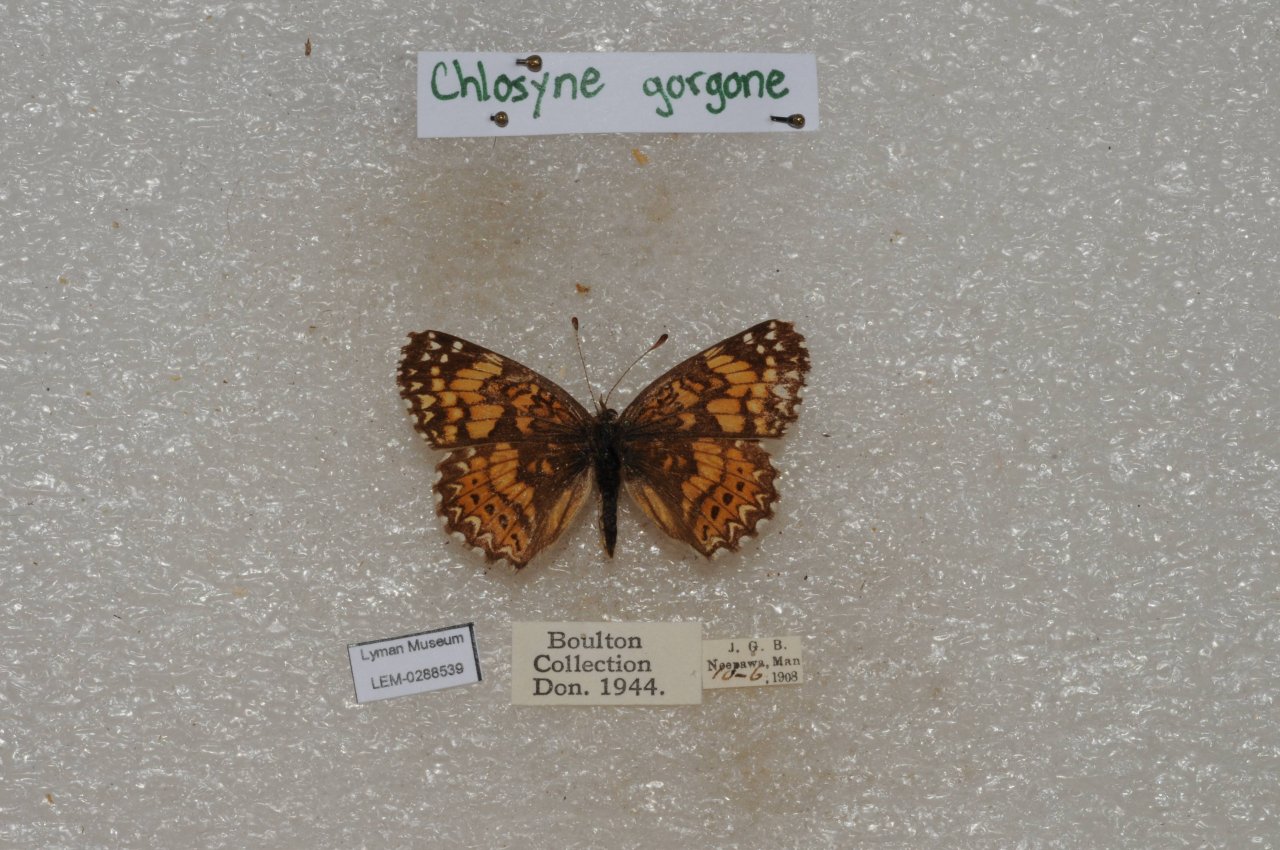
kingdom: Animalia
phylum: Arthropoda
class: Insecta
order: Lepidoptera
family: Nymphalidae
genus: Chlosyne
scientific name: Chlosyne gorgone
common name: Gorgone Checkerspot
